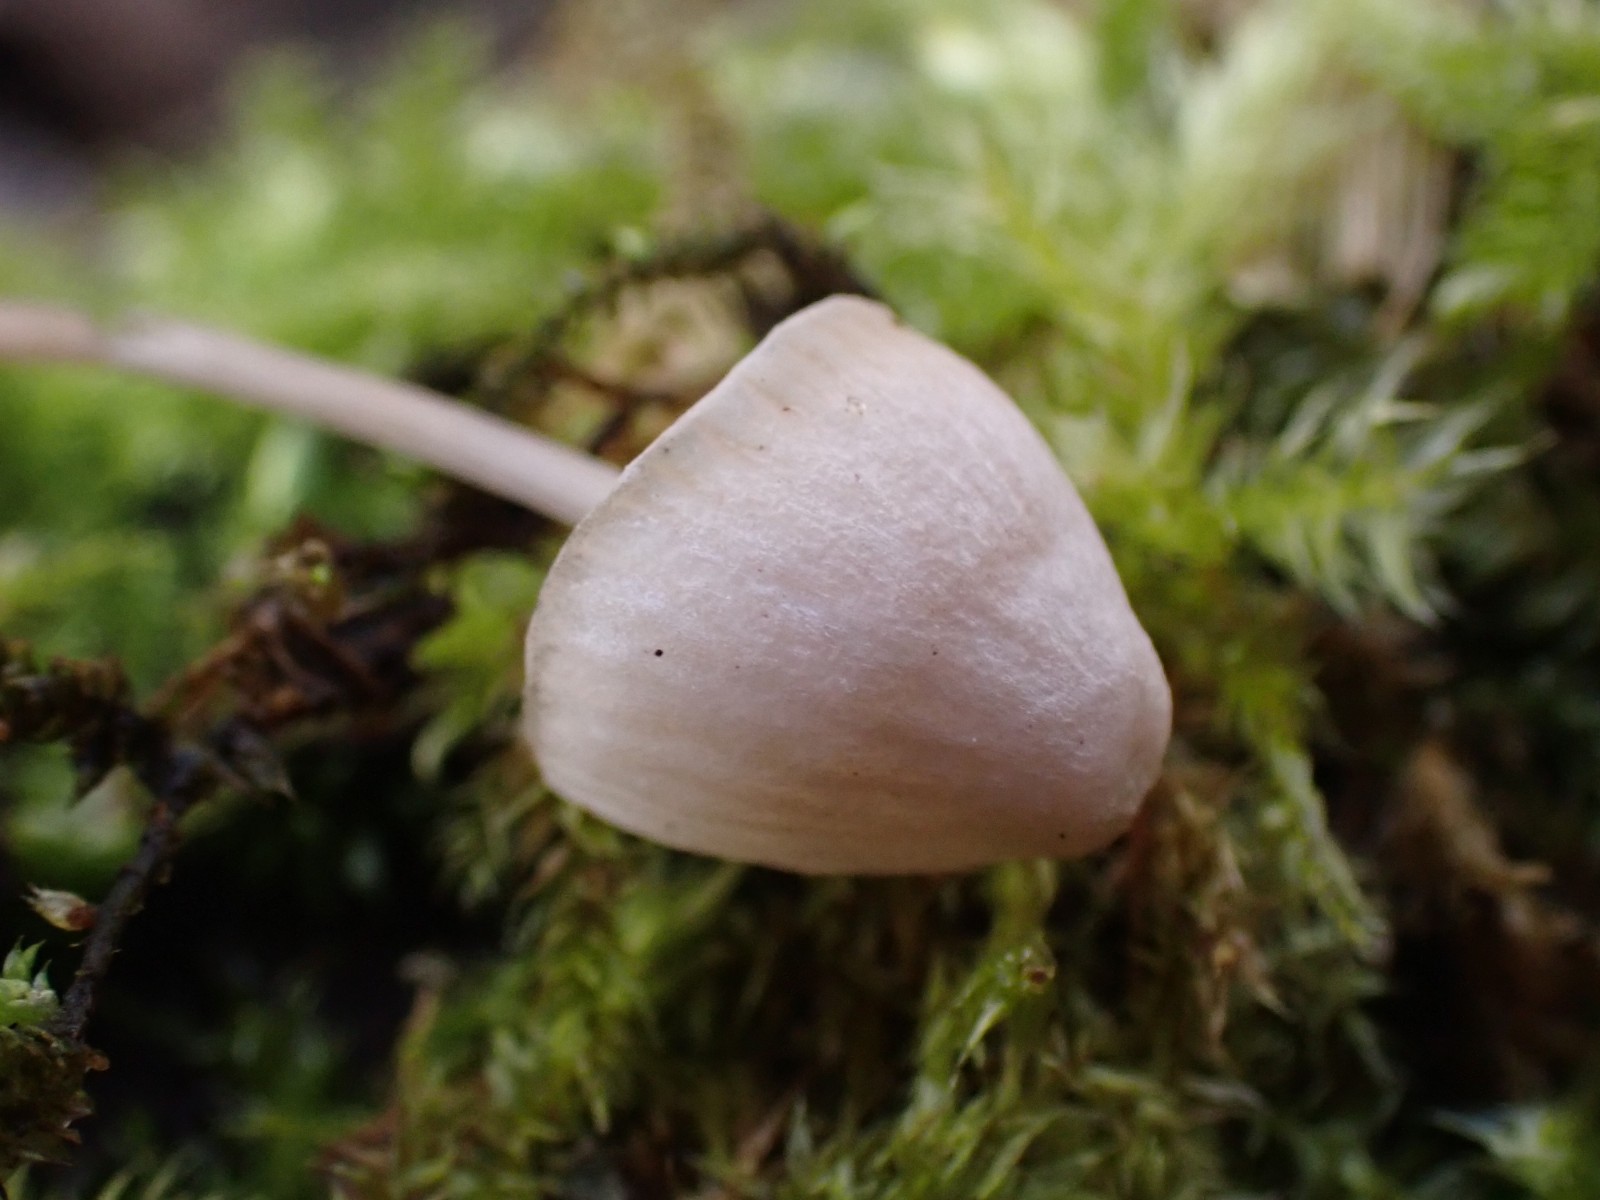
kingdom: Fungi
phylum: Basidiomycota
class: Agaricomycetes
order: Agaricales
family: Mycenaceae
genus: Mycena
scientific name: Mycena filopes
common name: jod-huesvamp
